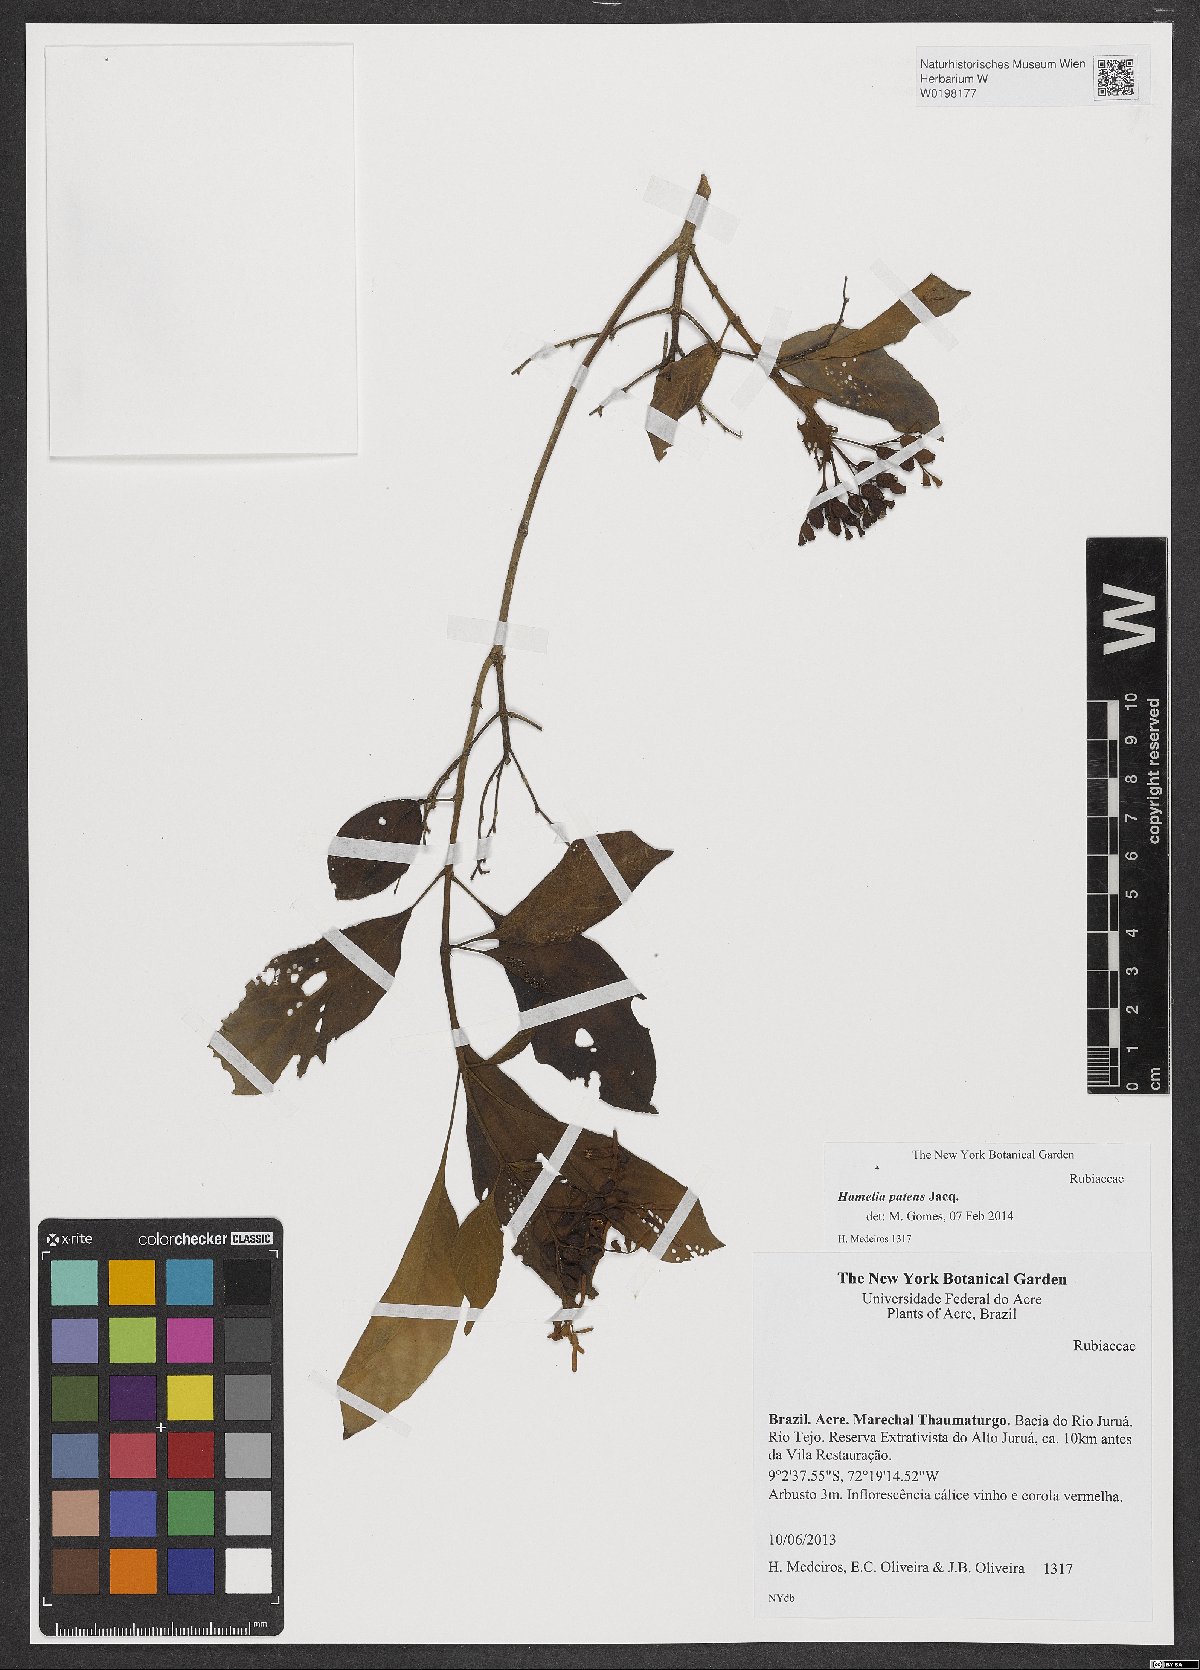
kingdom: Plantae
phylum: Tracheophyta
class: Magnoliopsida
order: Gentianales
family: Rubiaceae
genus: Hamelia
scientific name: Hamelia patens
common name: Redhead
